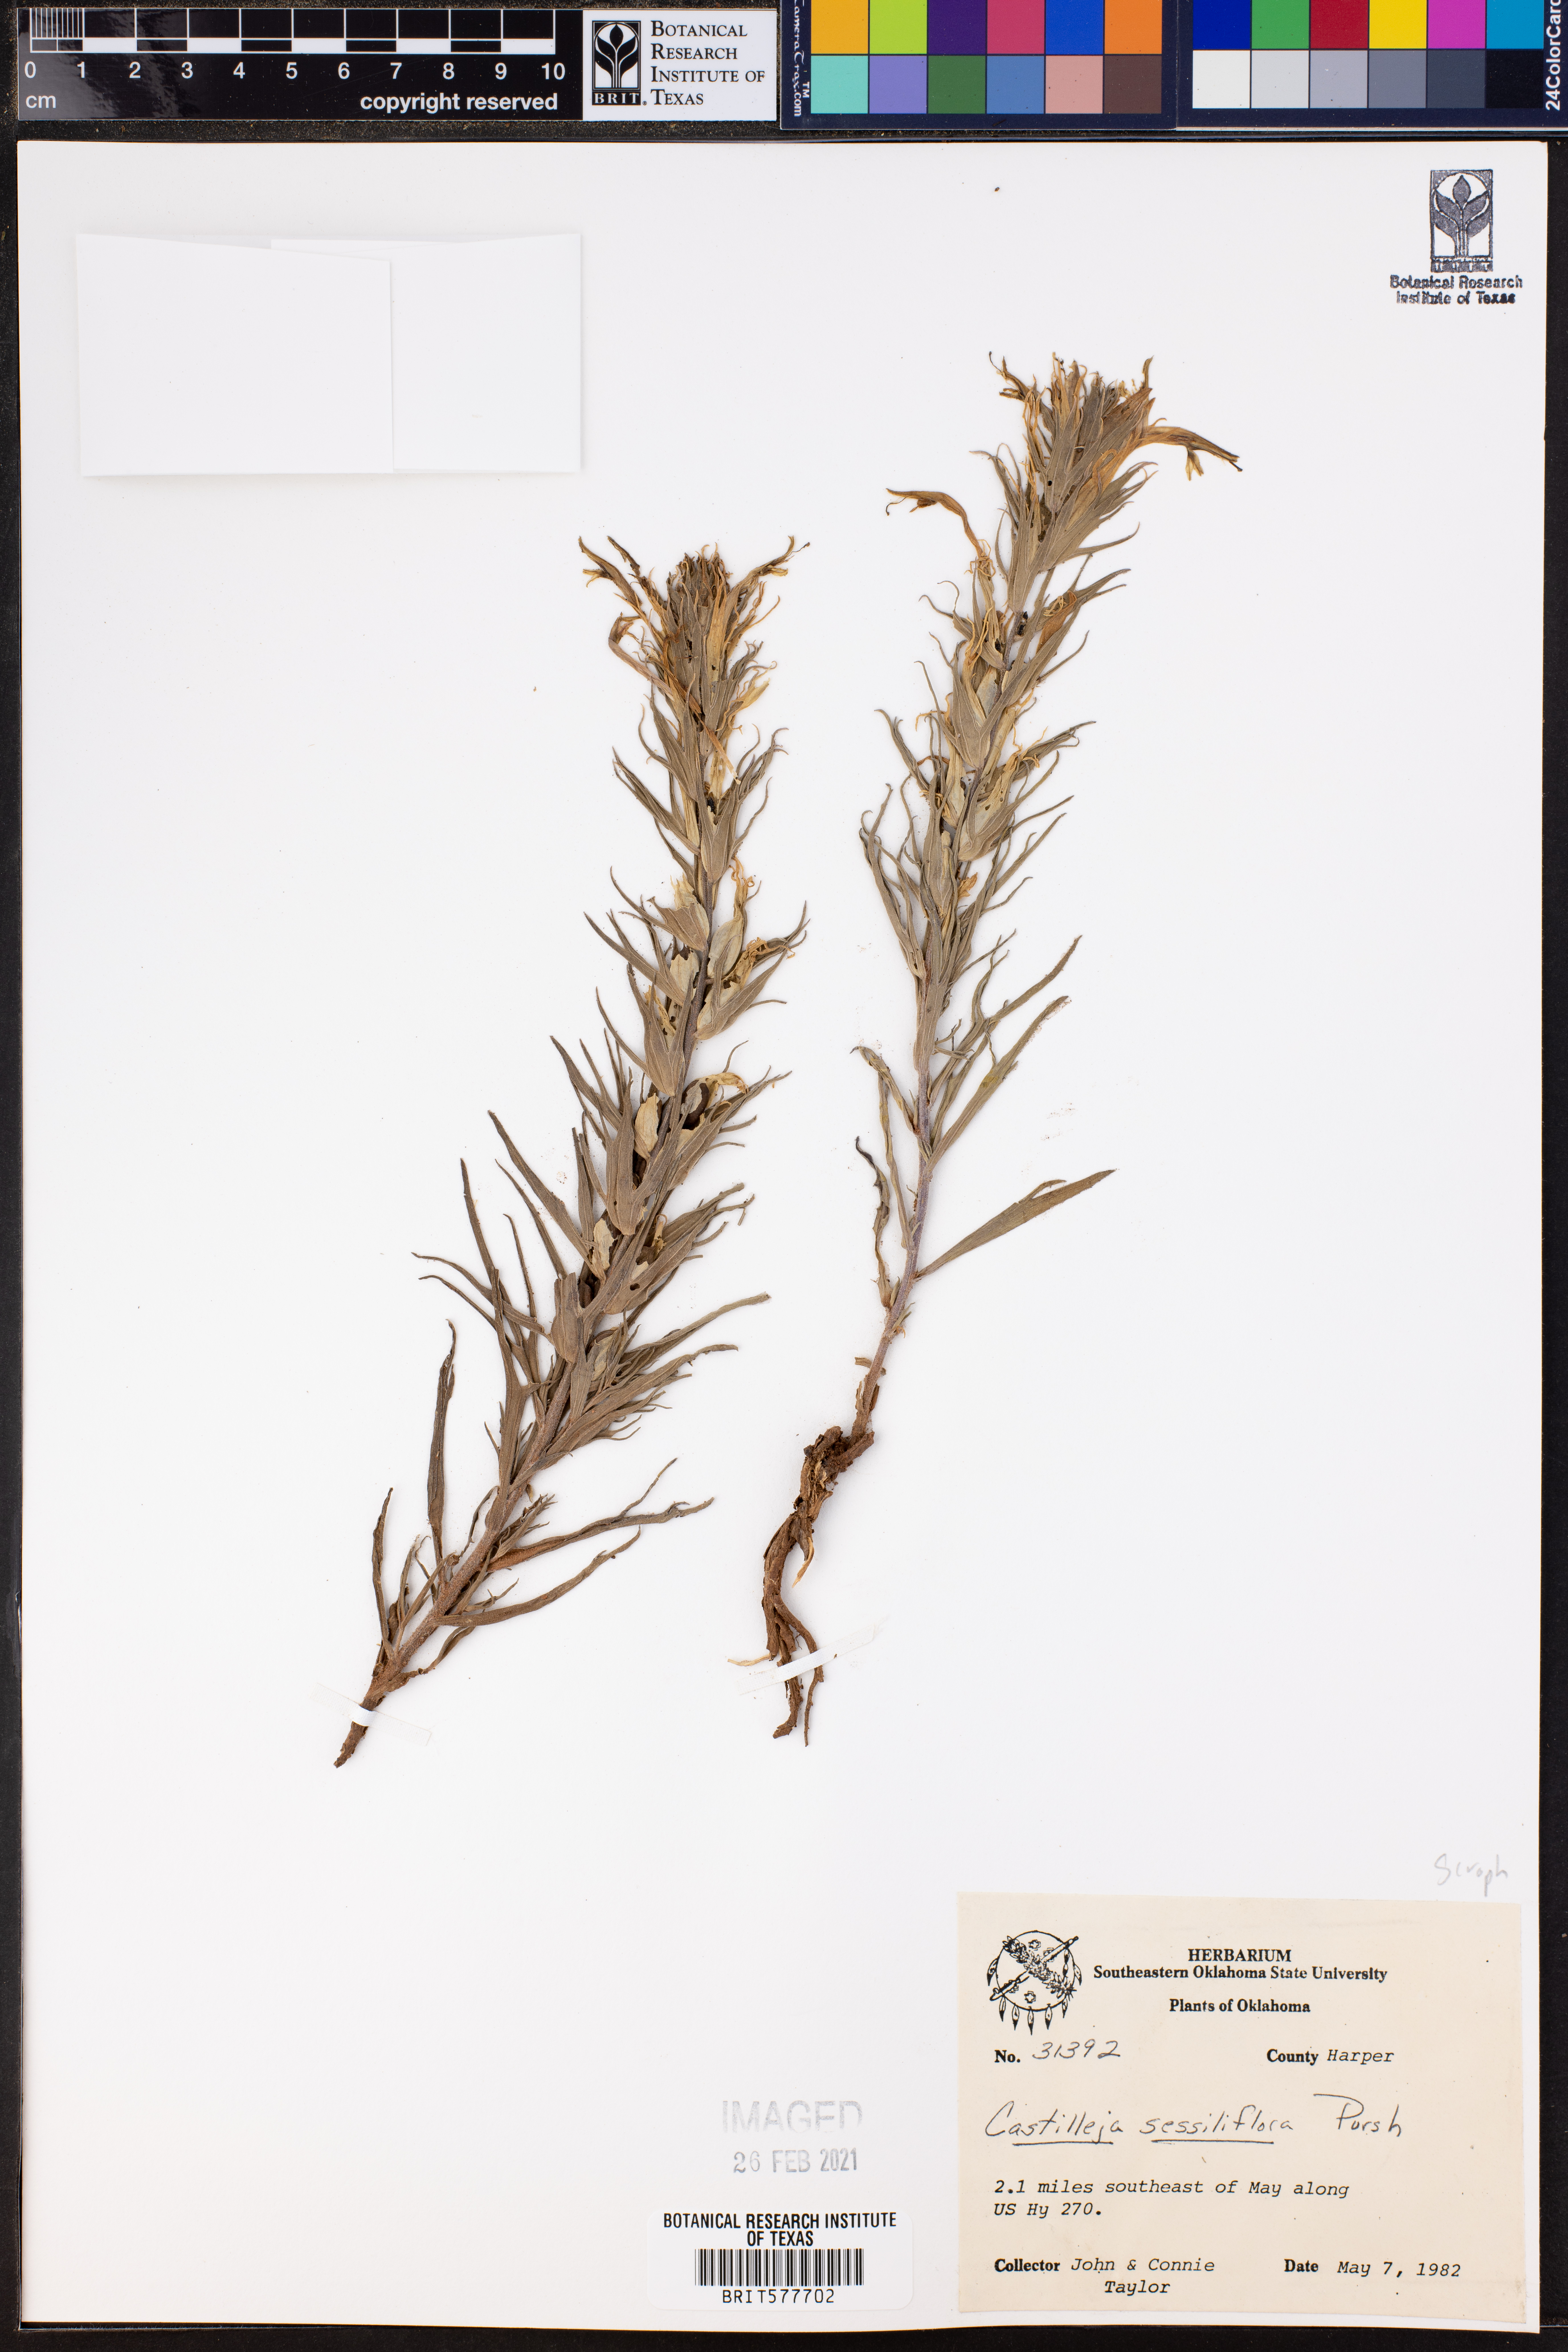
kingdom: Plantae
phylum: Tracheophyta
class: Magnoliopsida
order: Lamiales
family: Orobanchaceae
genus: Castilleja
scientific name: Castilleja sessiliflora
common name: Downy paintbrush
